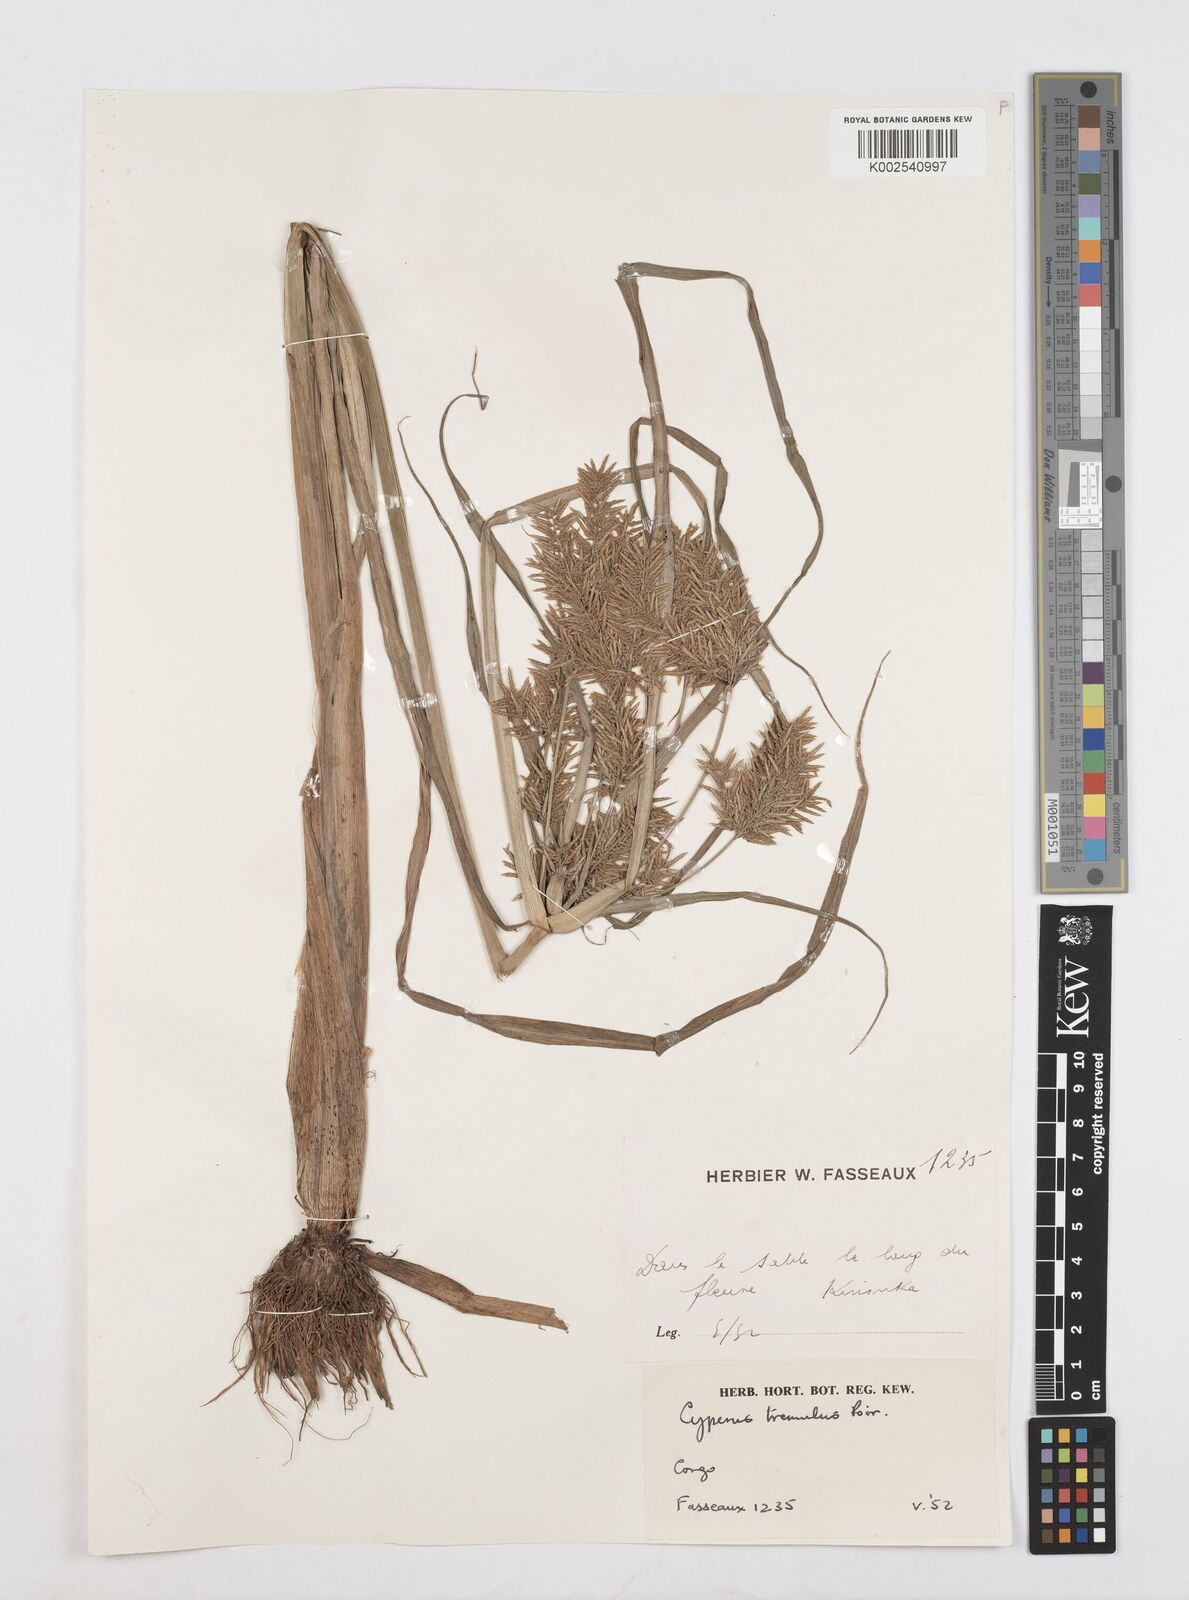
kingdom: Plantae
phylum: Tracheophyta
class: Liliopsida
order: Poales
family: Cyperaceae
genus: Cyperus
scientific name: Cyperus macrostachyos
